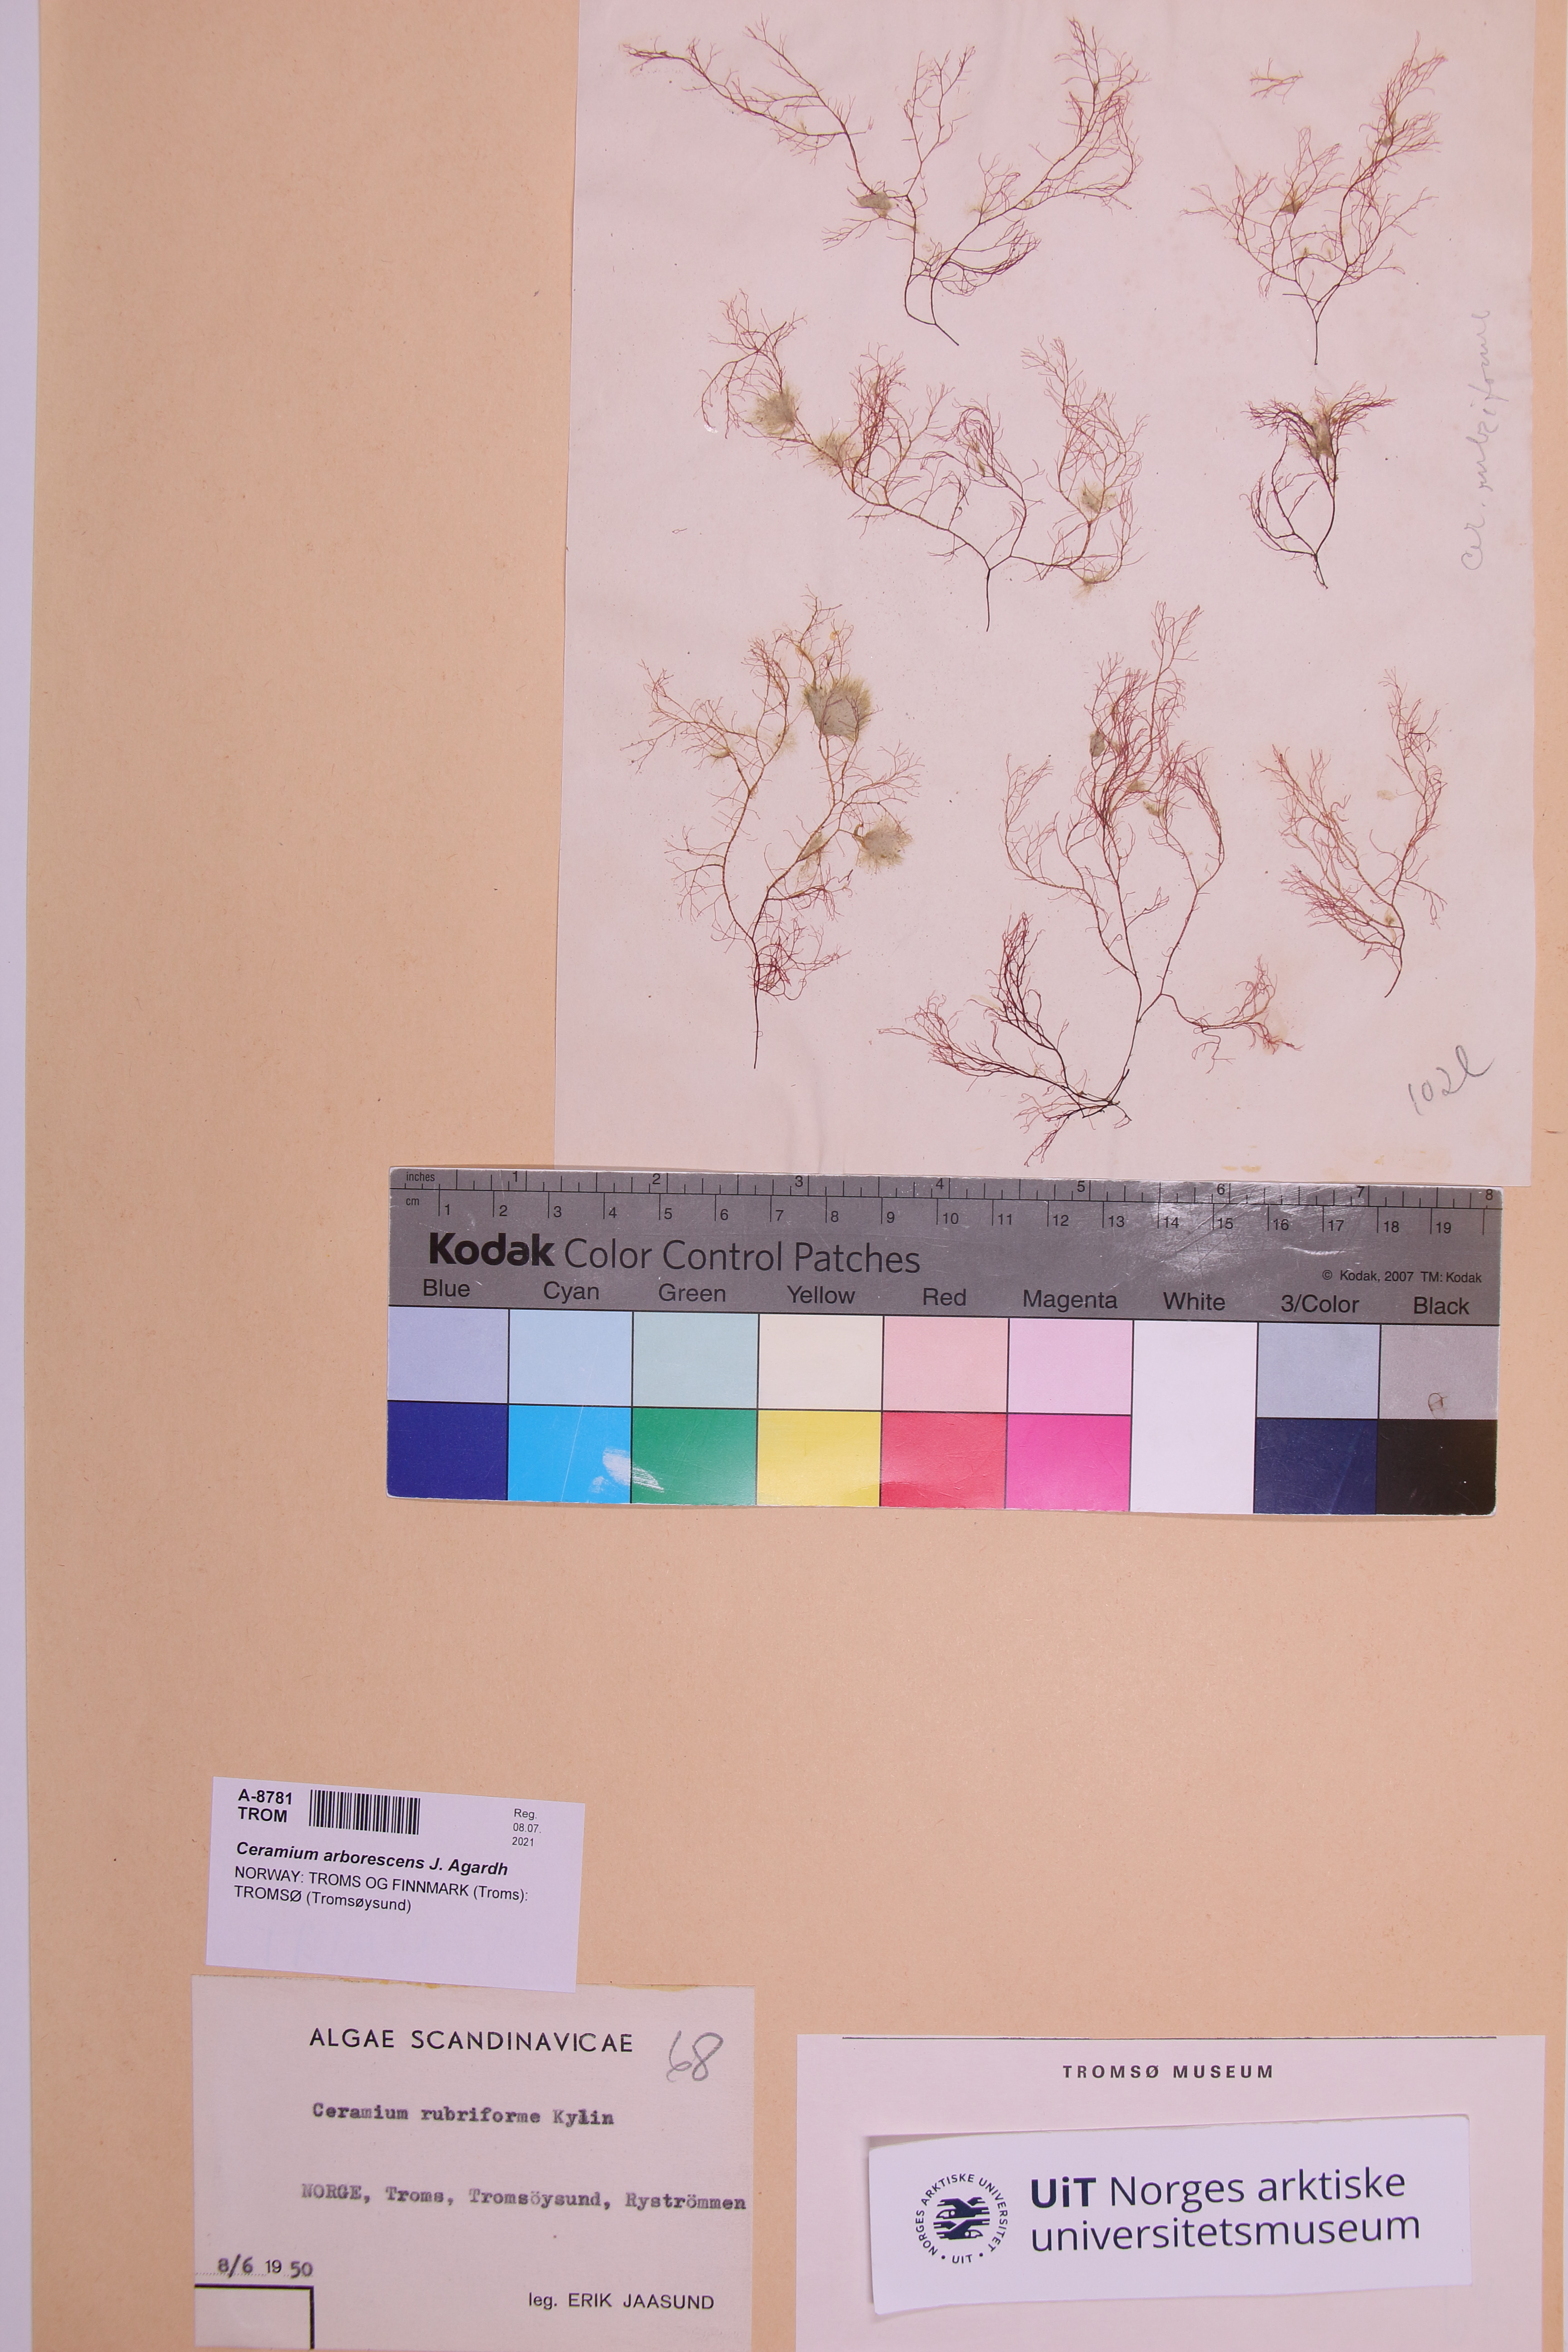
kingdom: Plantae
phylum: Rhodophyta
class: Florideophyceae
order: Ceramiales
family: Ceramiaceae
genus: Ceramium
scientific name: Ceramium arborescens
